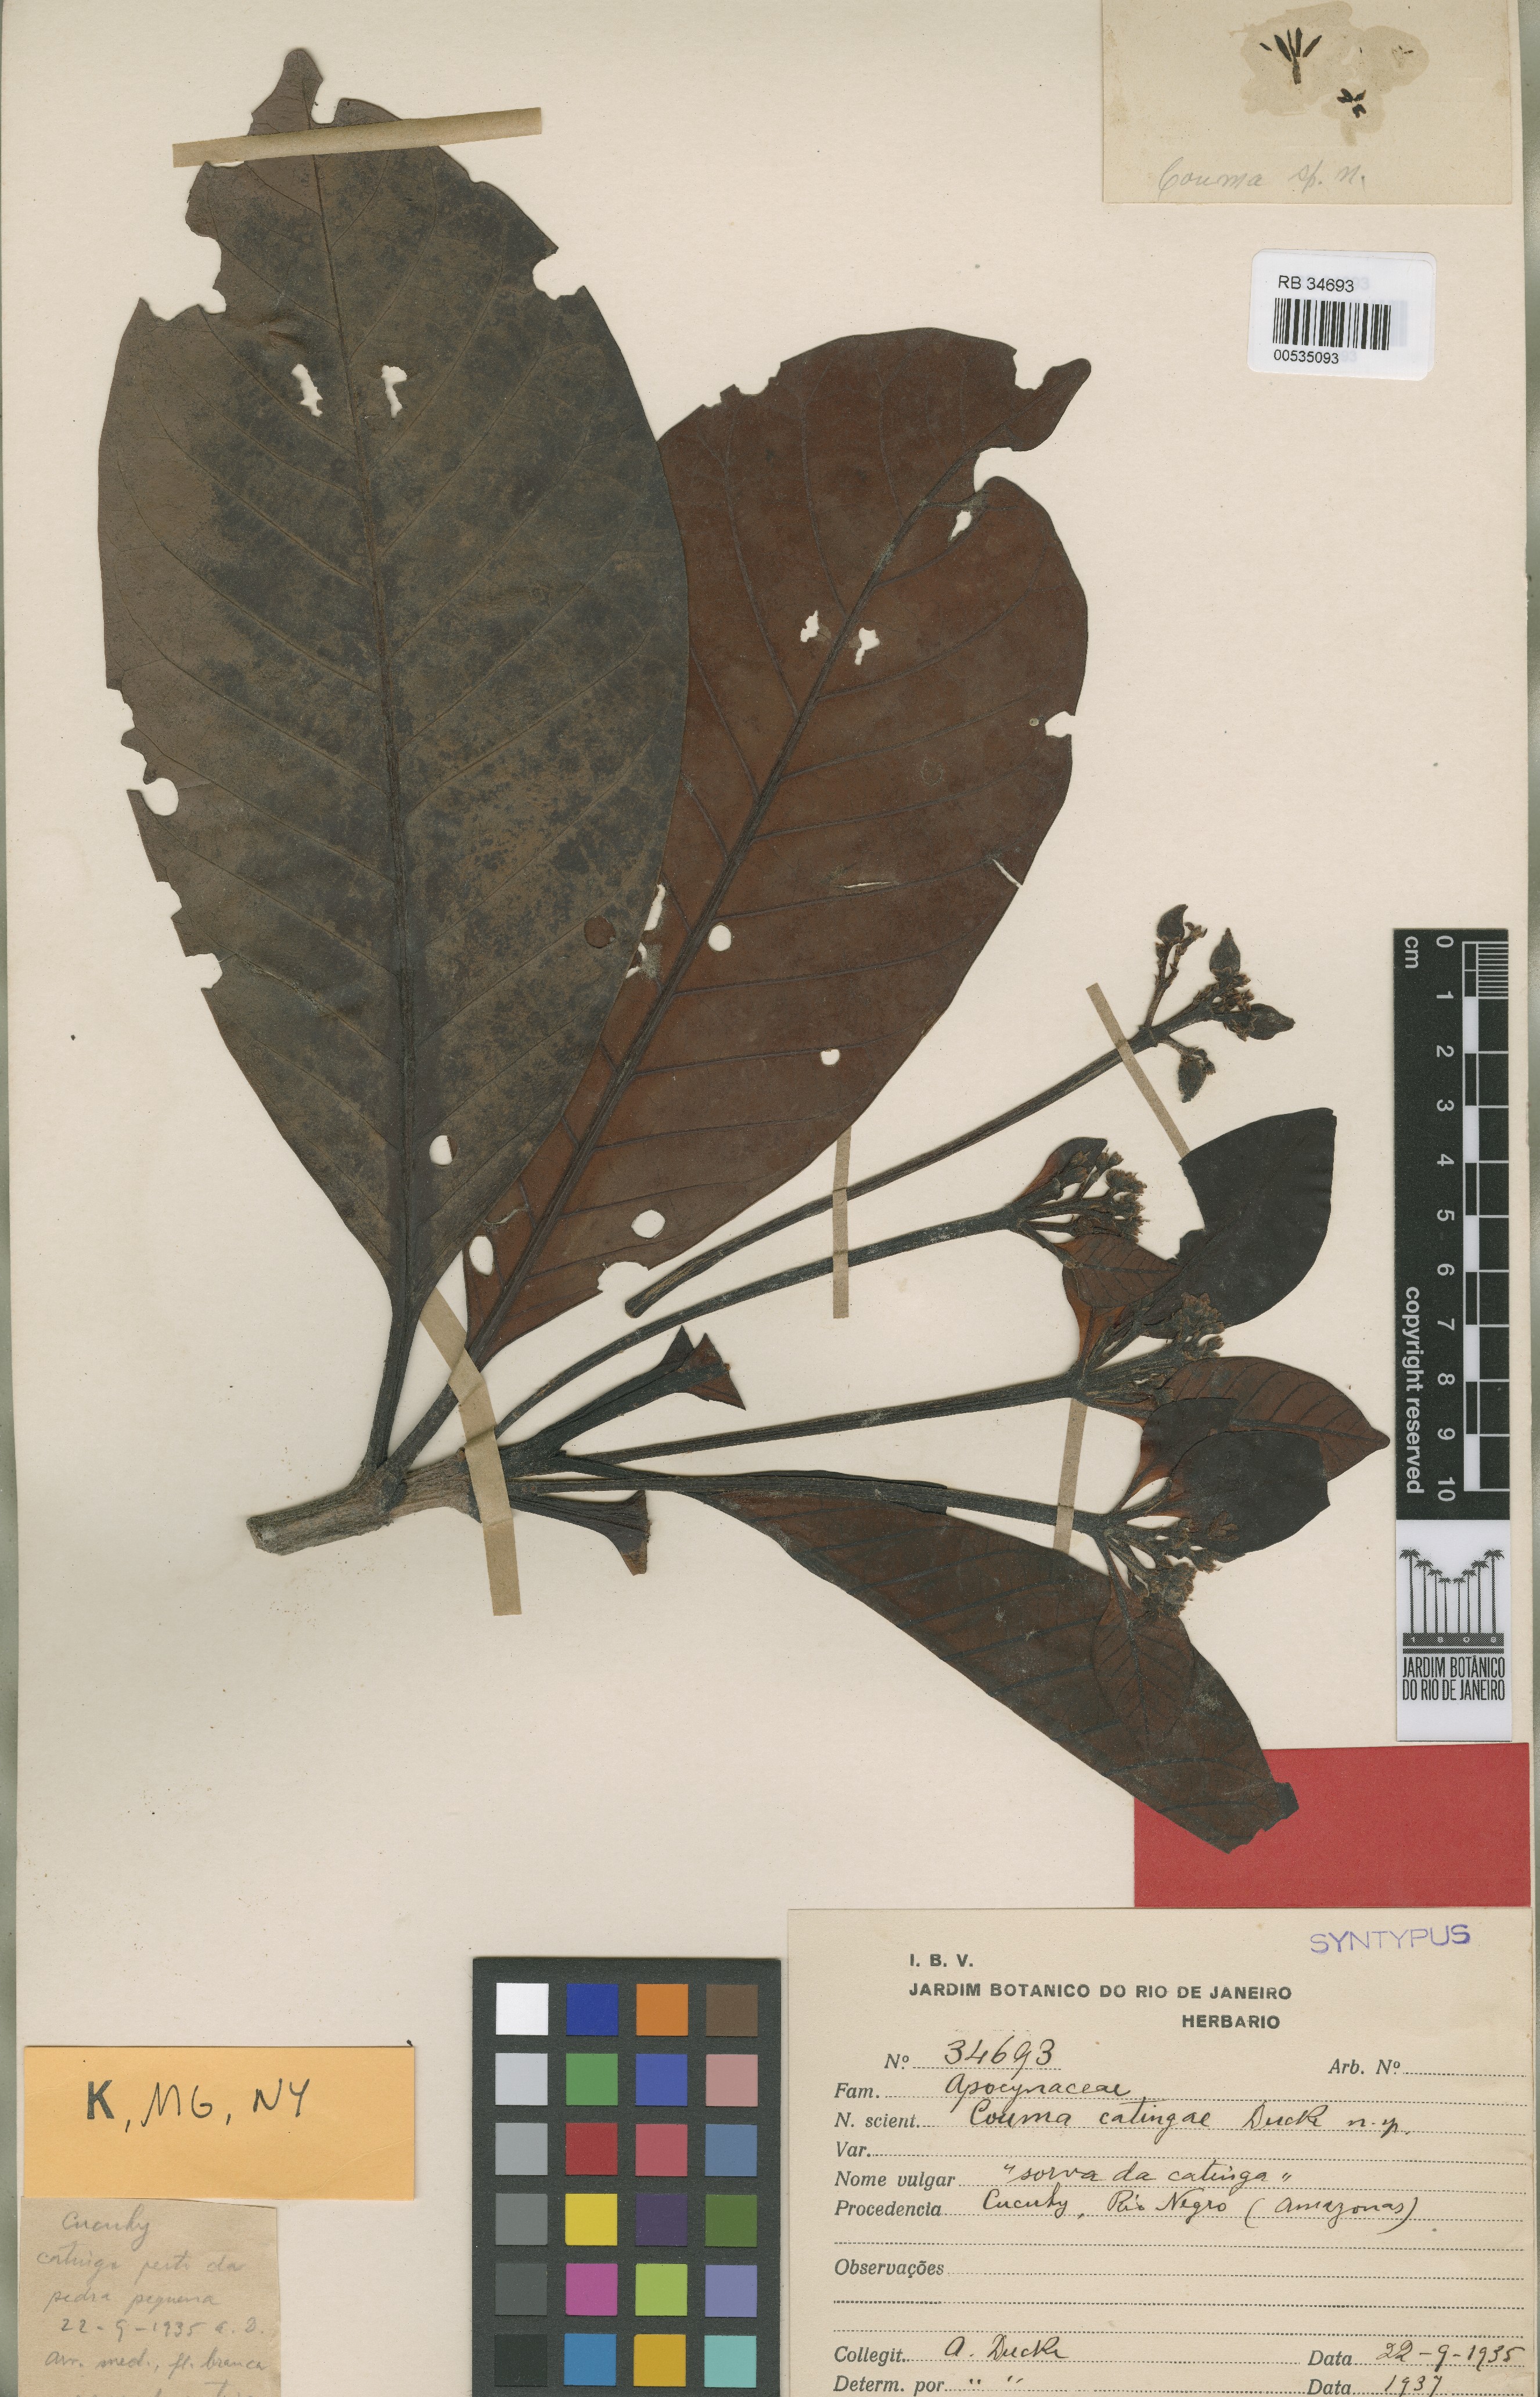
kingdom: Plantae
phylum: Tracheophyta
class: Magnoliopsida
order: Gentianales
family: Apocynaceae
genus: Couma
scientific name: Couma catingae
